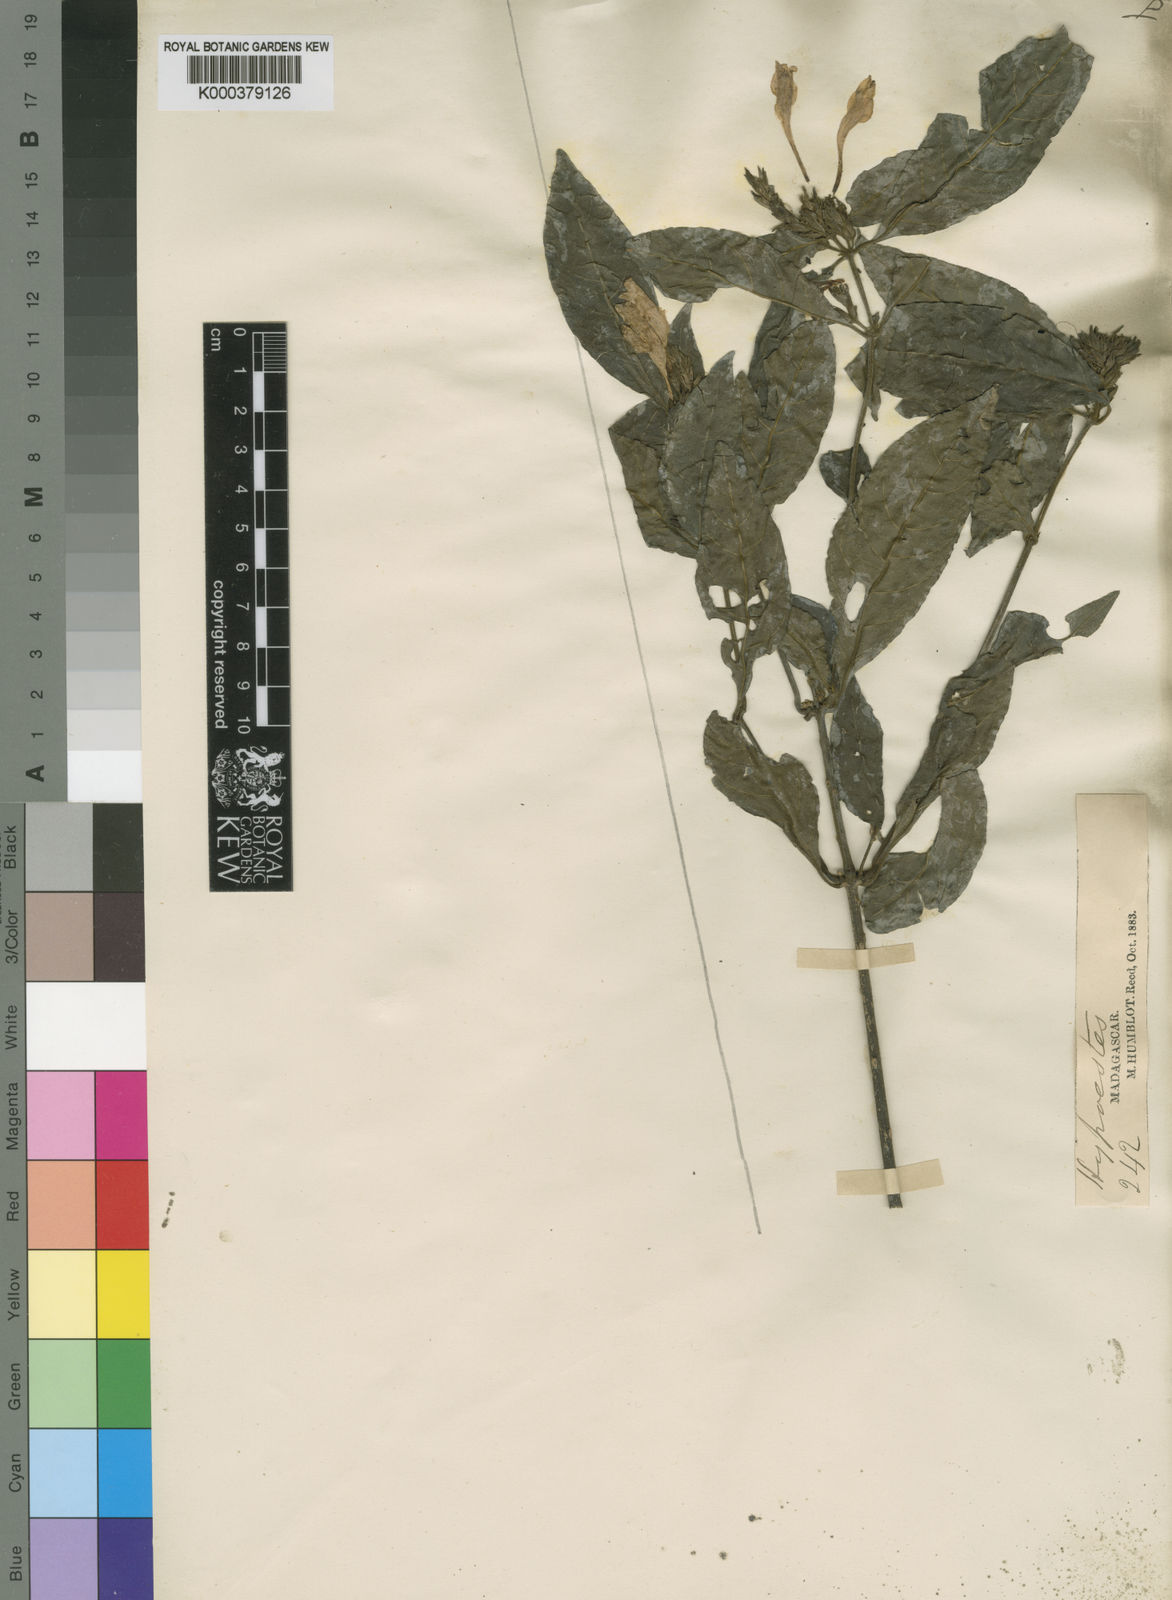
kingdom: Plantae
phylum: Tracheophyta
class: Magnoliopsida
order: Lamiales
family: Acanthaceae
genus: Hypoestes
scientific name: Hypoestes cruenta
